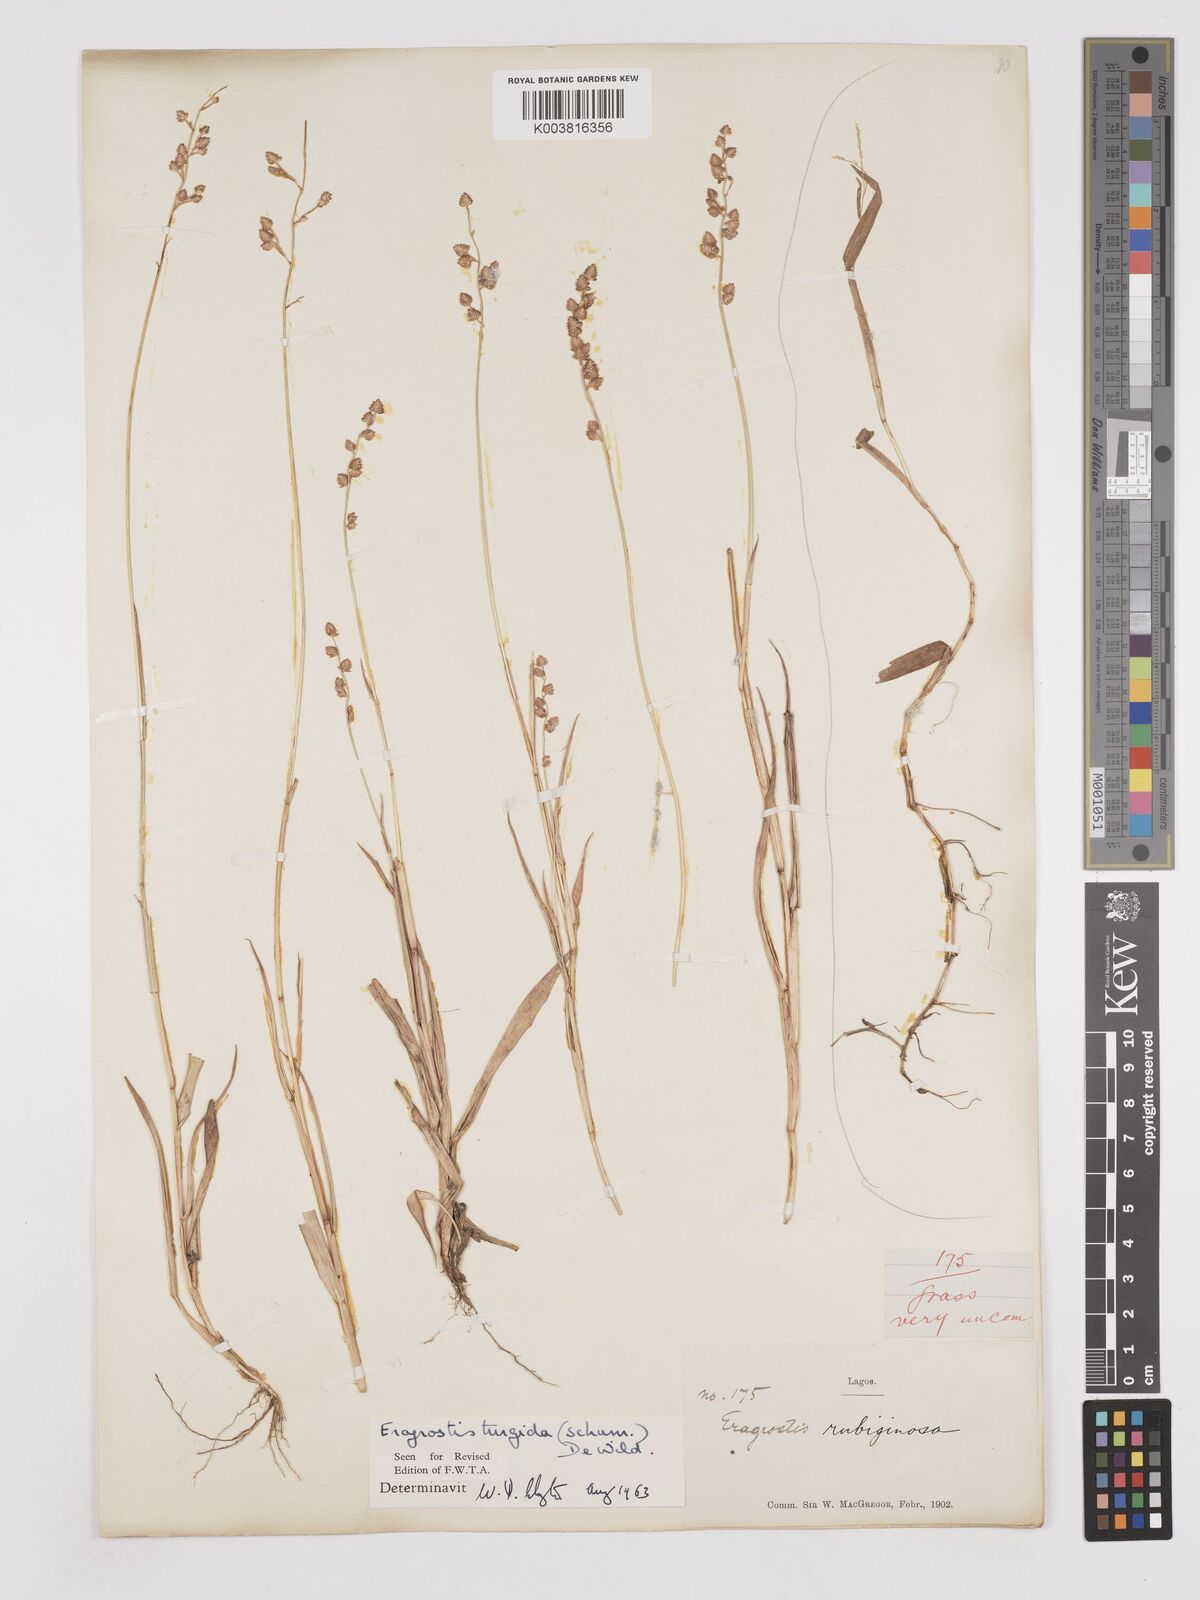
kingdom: Plantae
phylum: Tracheophyta
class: Liliopsida
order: Poales
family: Poaceae
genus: Eragrostis
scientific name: Eragrostis turgida
